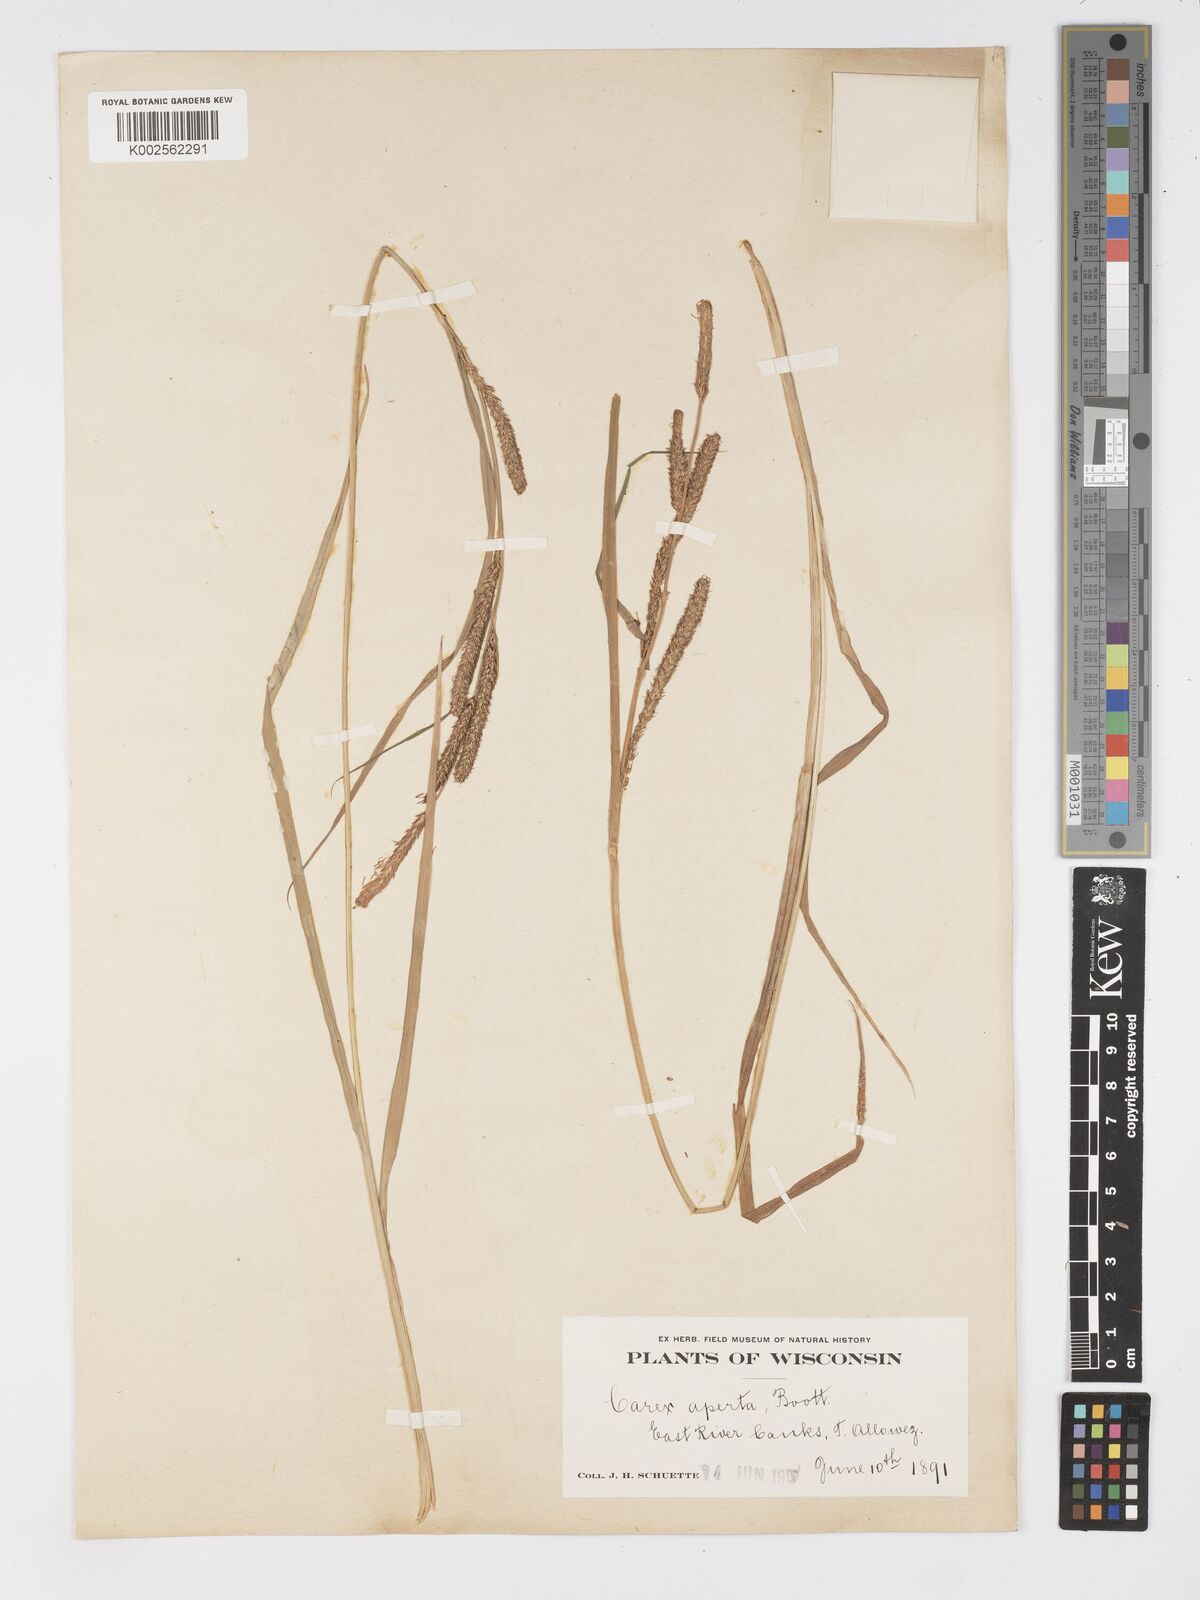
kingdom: Plantae
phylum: Tracheophyta
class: Liliopsida
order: Poales
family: Cyperaceae
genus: Carex
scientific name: Carex aperta
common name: Columbia sedge
